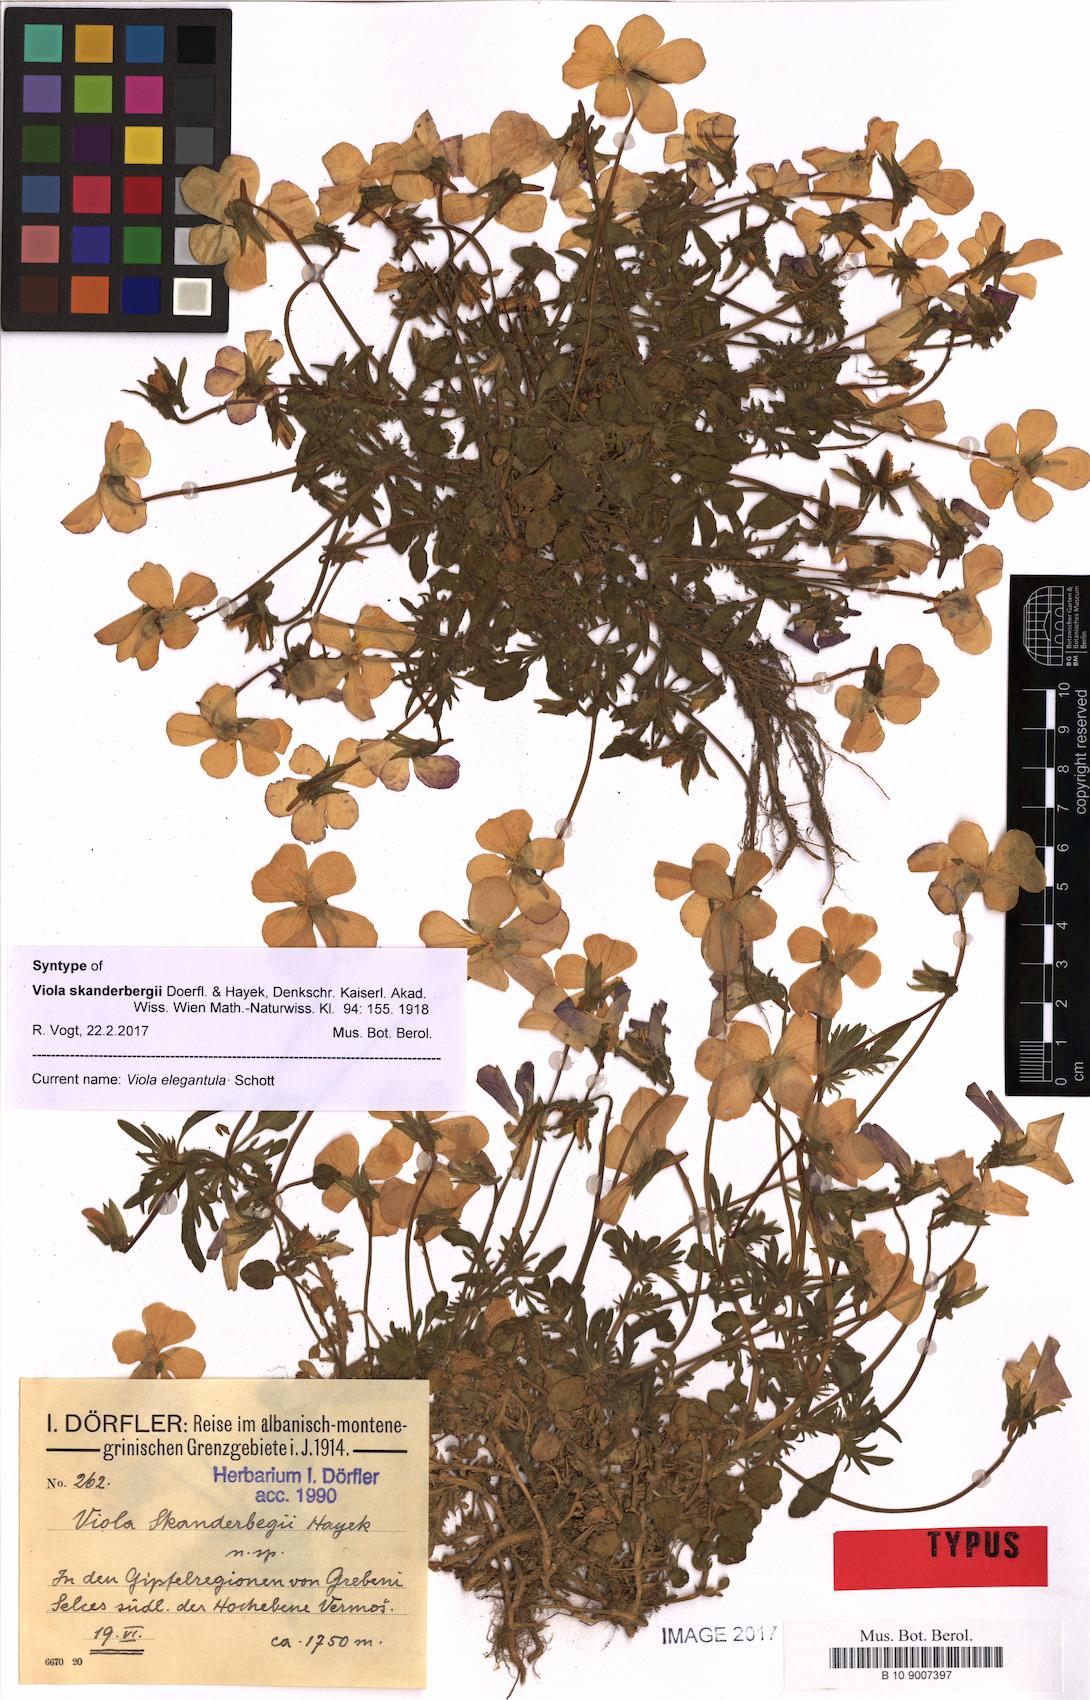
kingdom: Plantae
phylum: Tracheophyta
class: Magnoliopsida
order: Malpighiales
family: Violaceae
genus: Viola
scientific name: Viola elegantula
